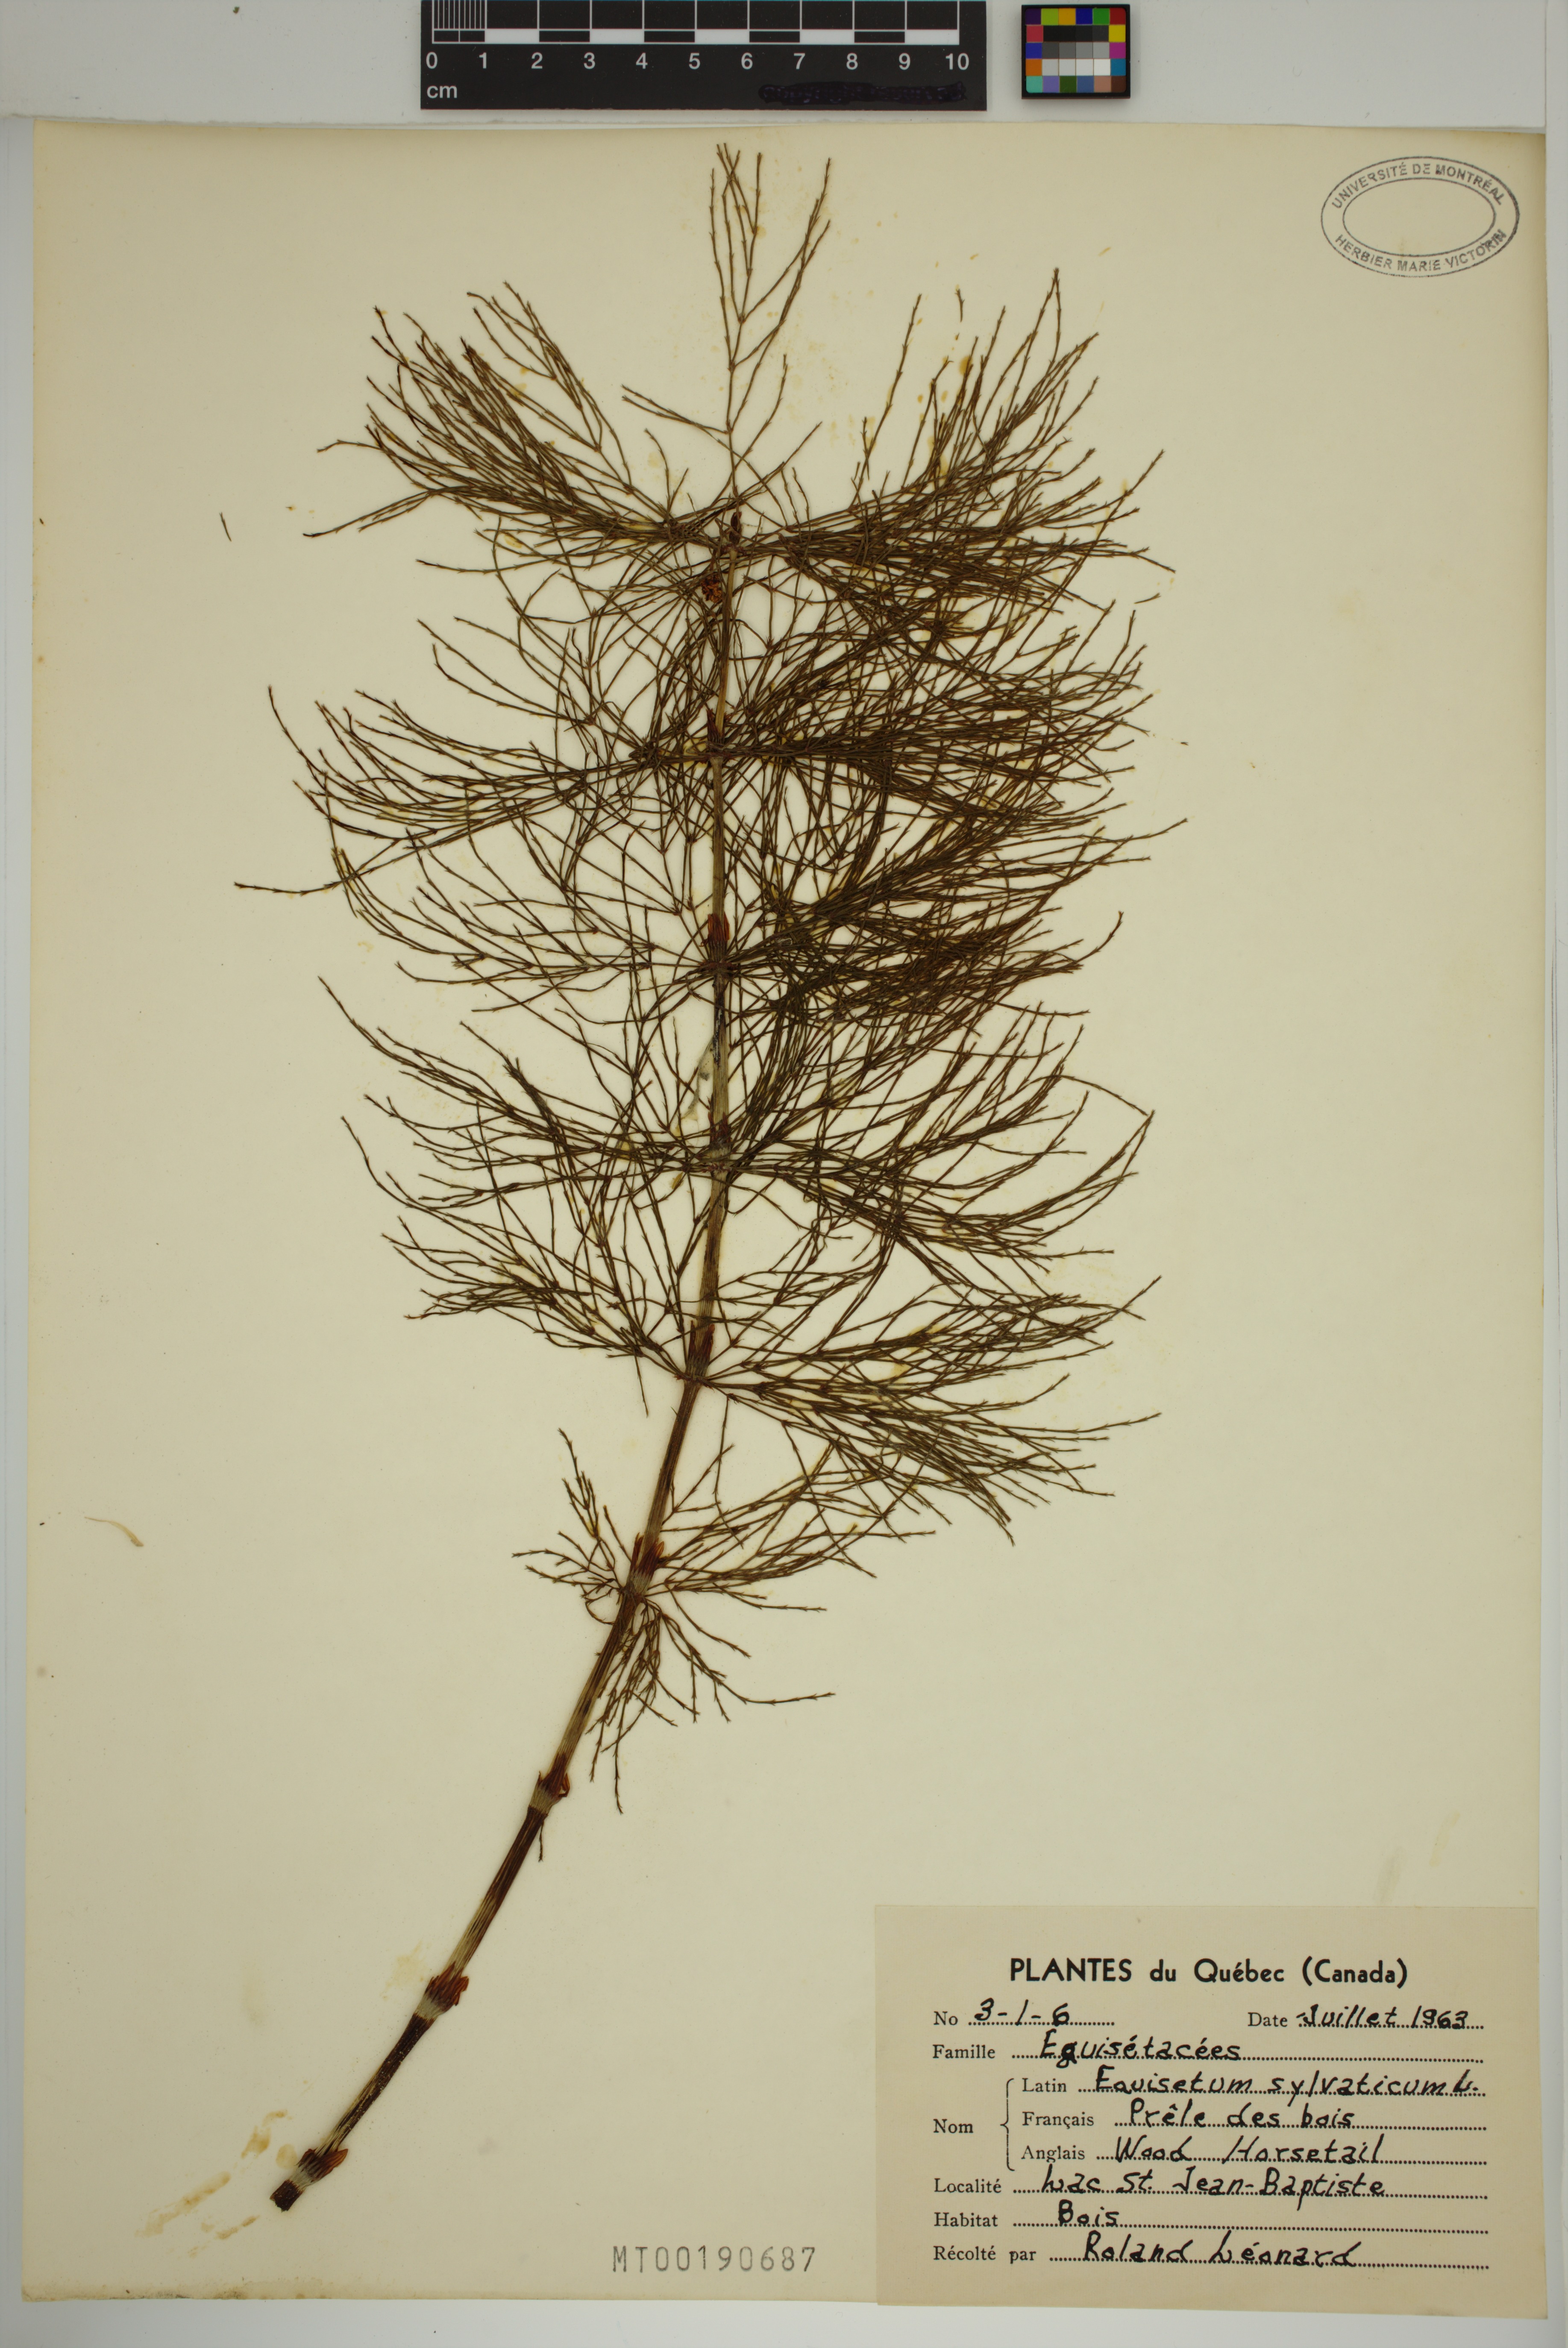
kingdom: Plantae
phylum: Tracheophyta
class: Polypodiopsida
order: Equisetales
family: Equisetaceae
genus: Equisetum
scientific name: Equisetum sylvaticum
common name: Wood horsetail
